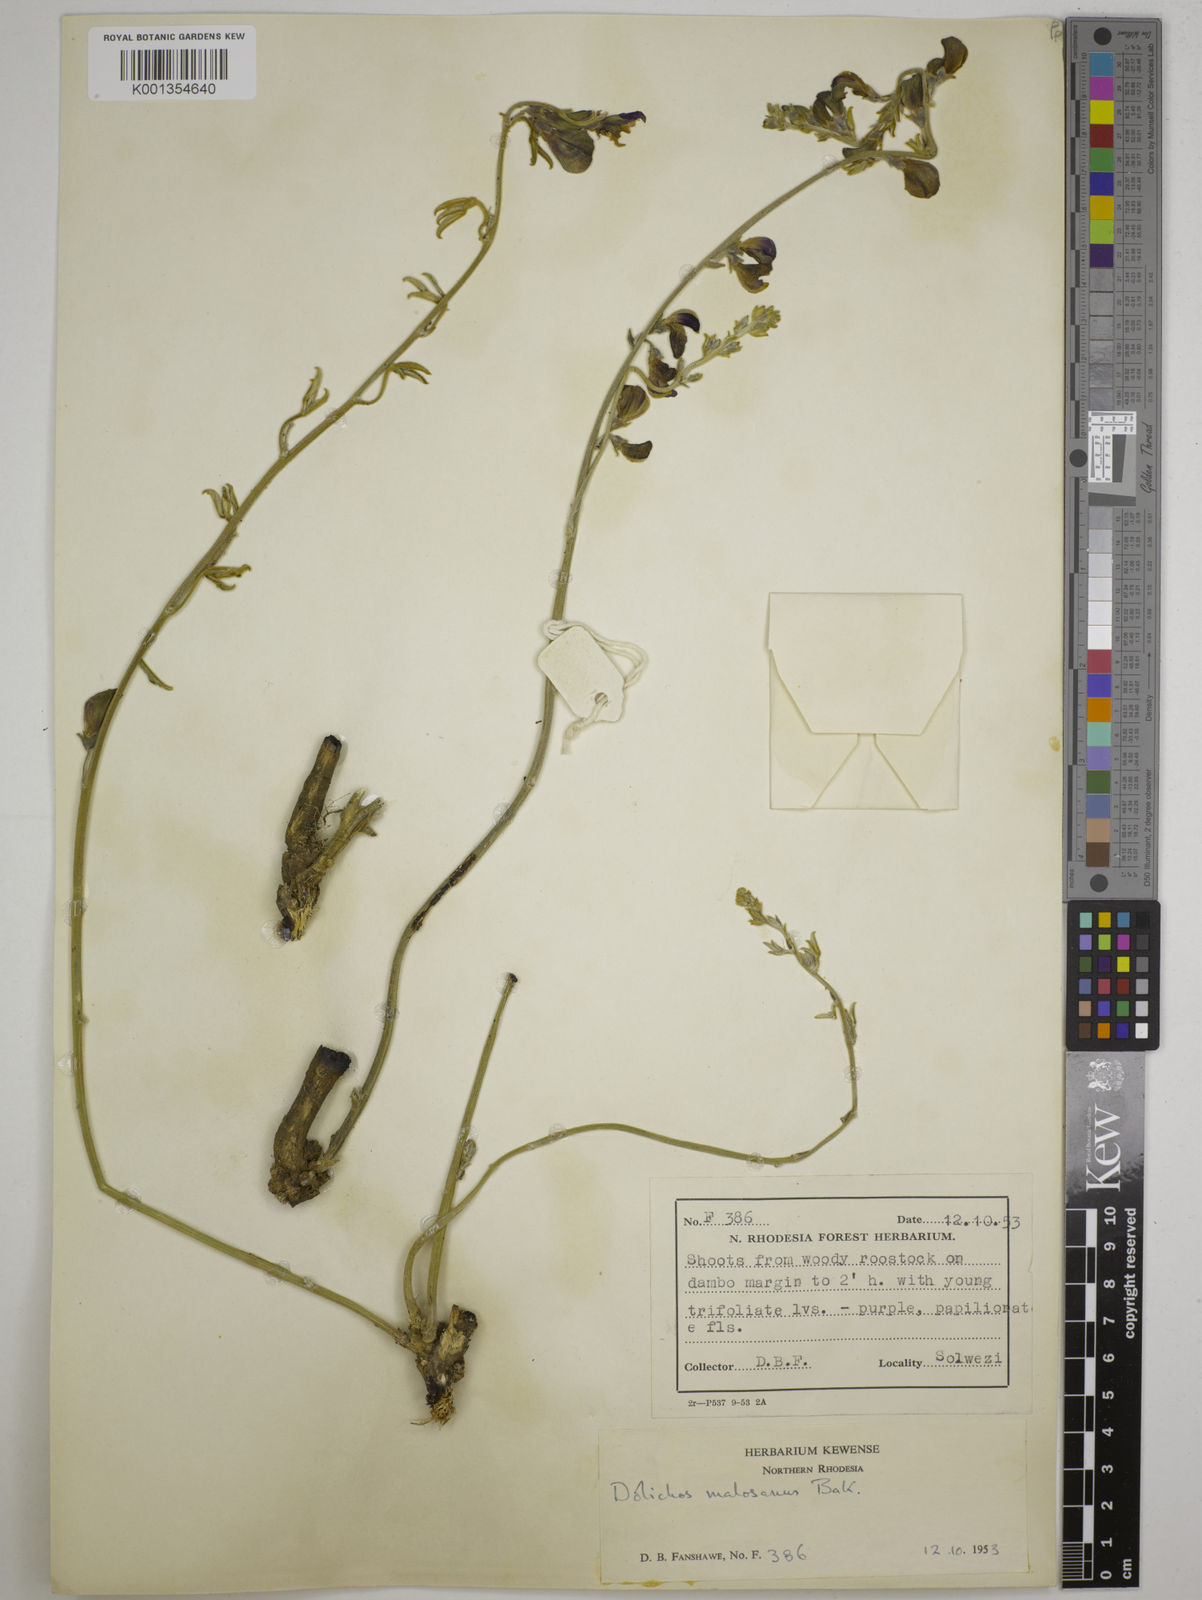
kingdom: Plantae
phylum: Tracheophyta
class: Magnoliopsida
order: Fabales
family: Fabaceae
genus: Dolichos
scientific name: Dolichos kilimandscharicus
